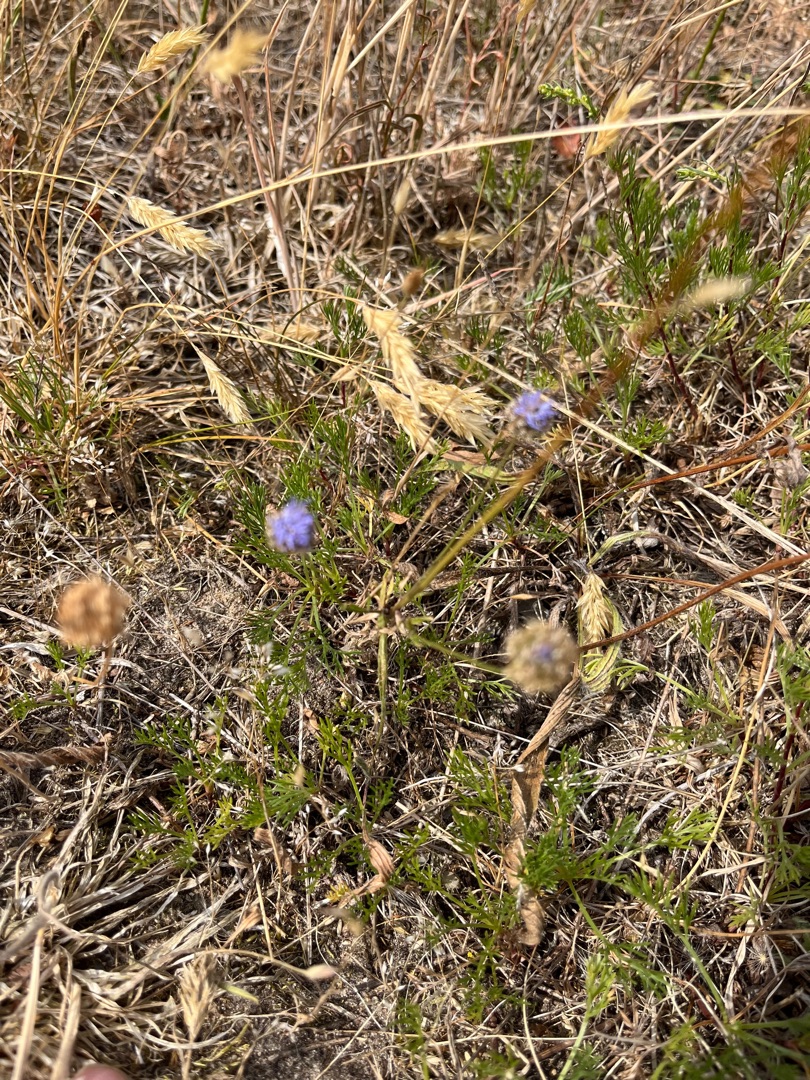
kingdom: Plantae
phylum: Tracheophyta
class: Magnoliopsida
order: Asterales
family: Campanulaceae
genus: Jasione
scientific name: Jasione montana
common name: Blåmunke
